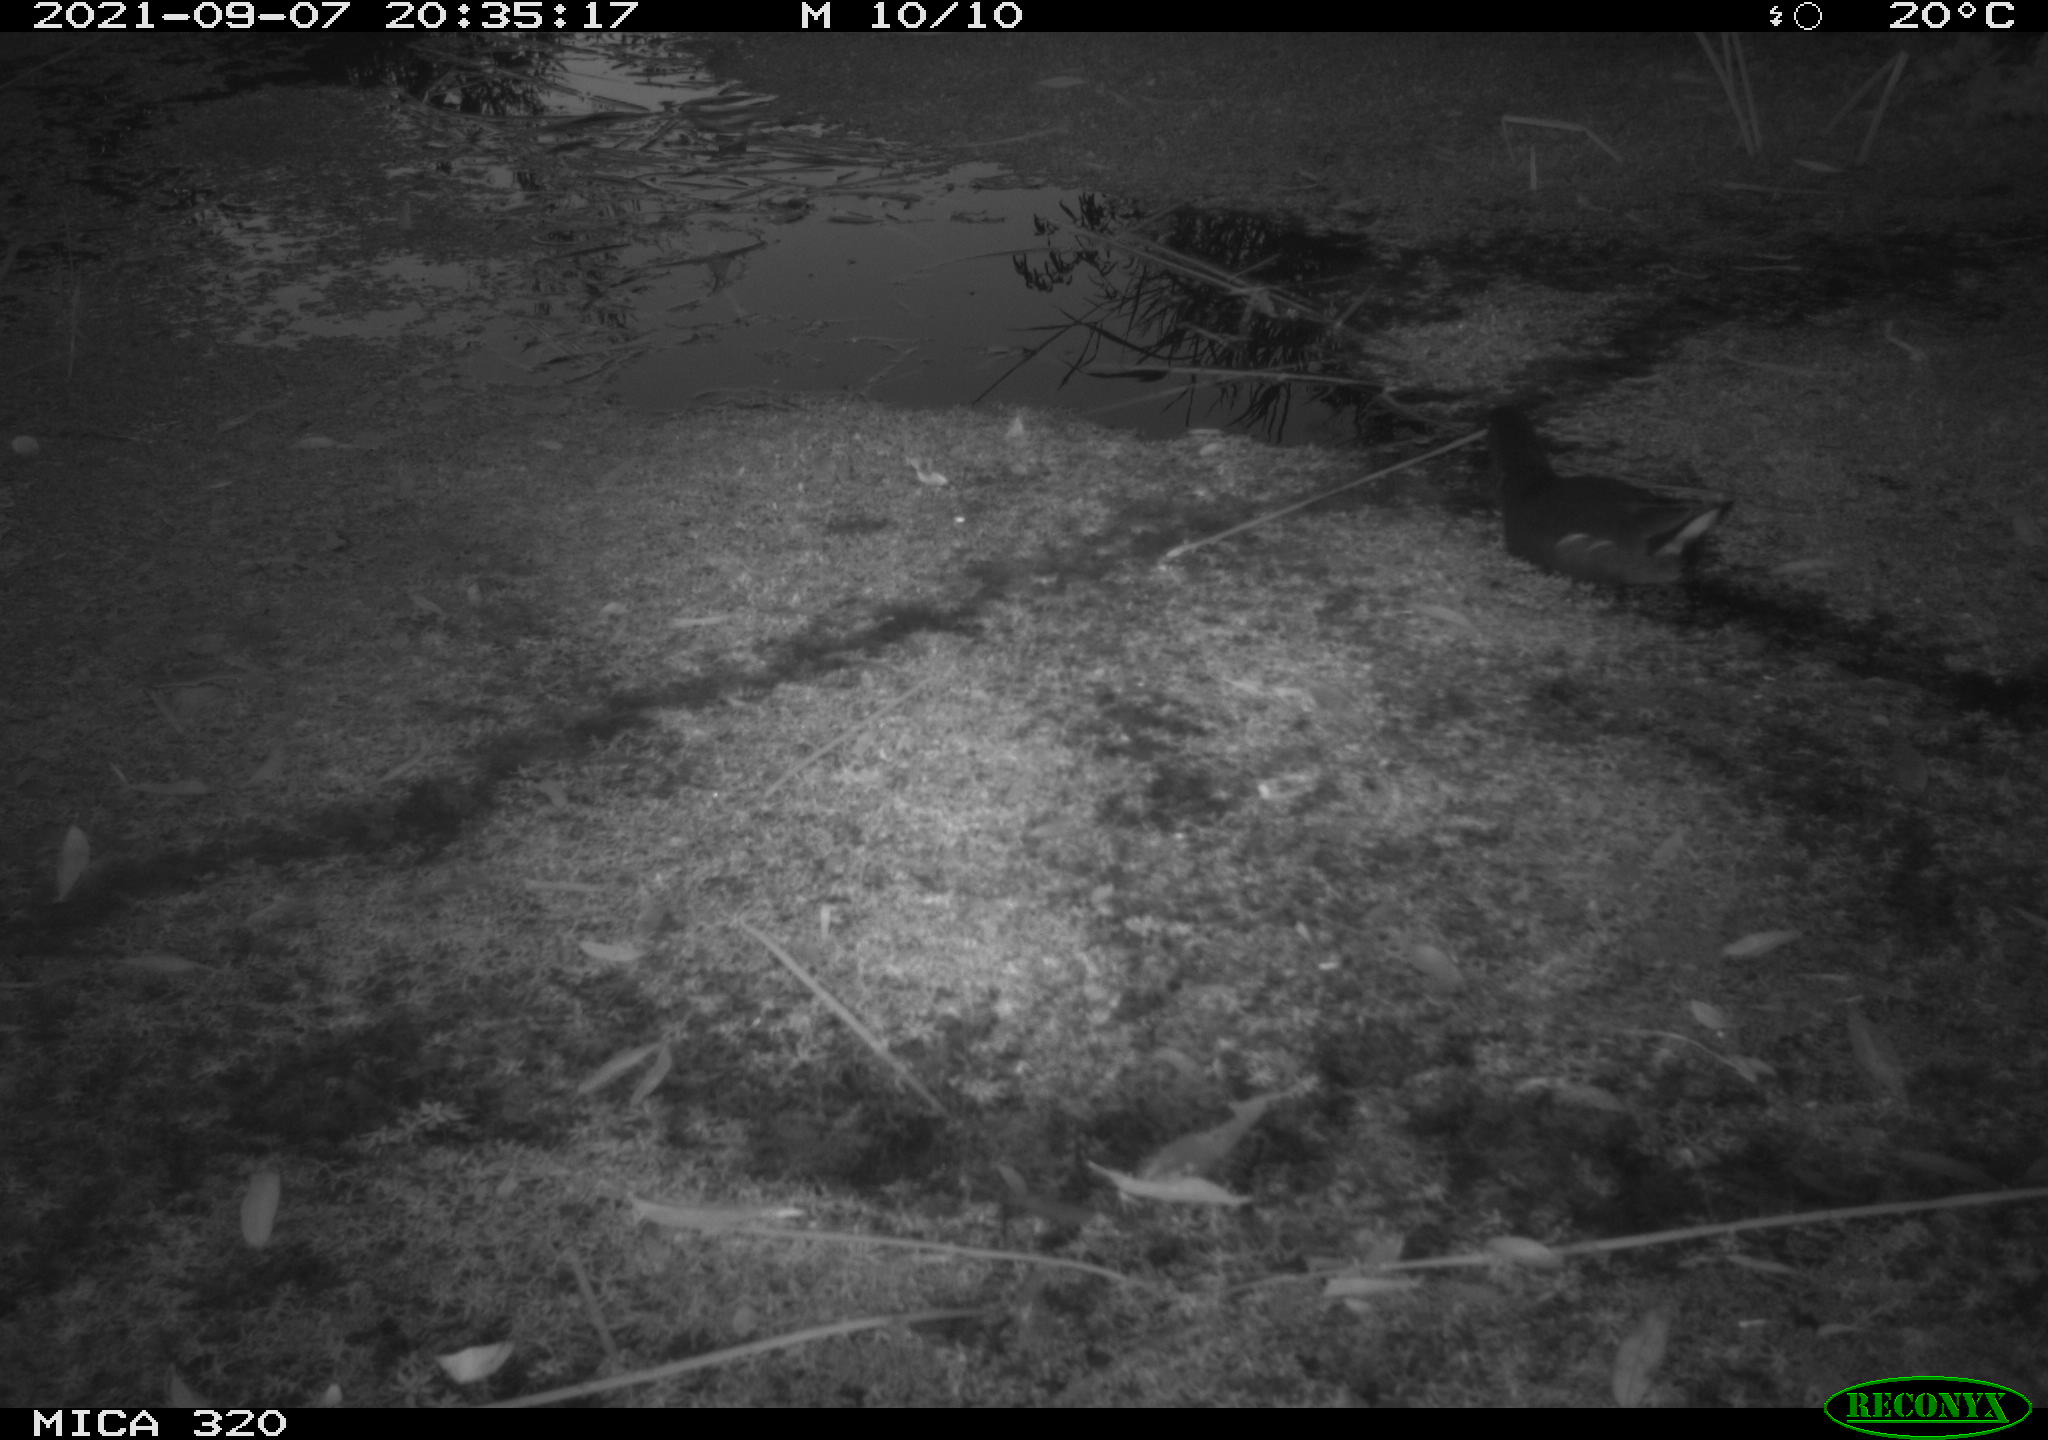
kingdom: Animalia
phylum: Chordata
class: Aves
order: Gruiformes
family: Rallidae
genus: Gallinula
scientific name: Gallinula chloropus
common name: Common moorhen
